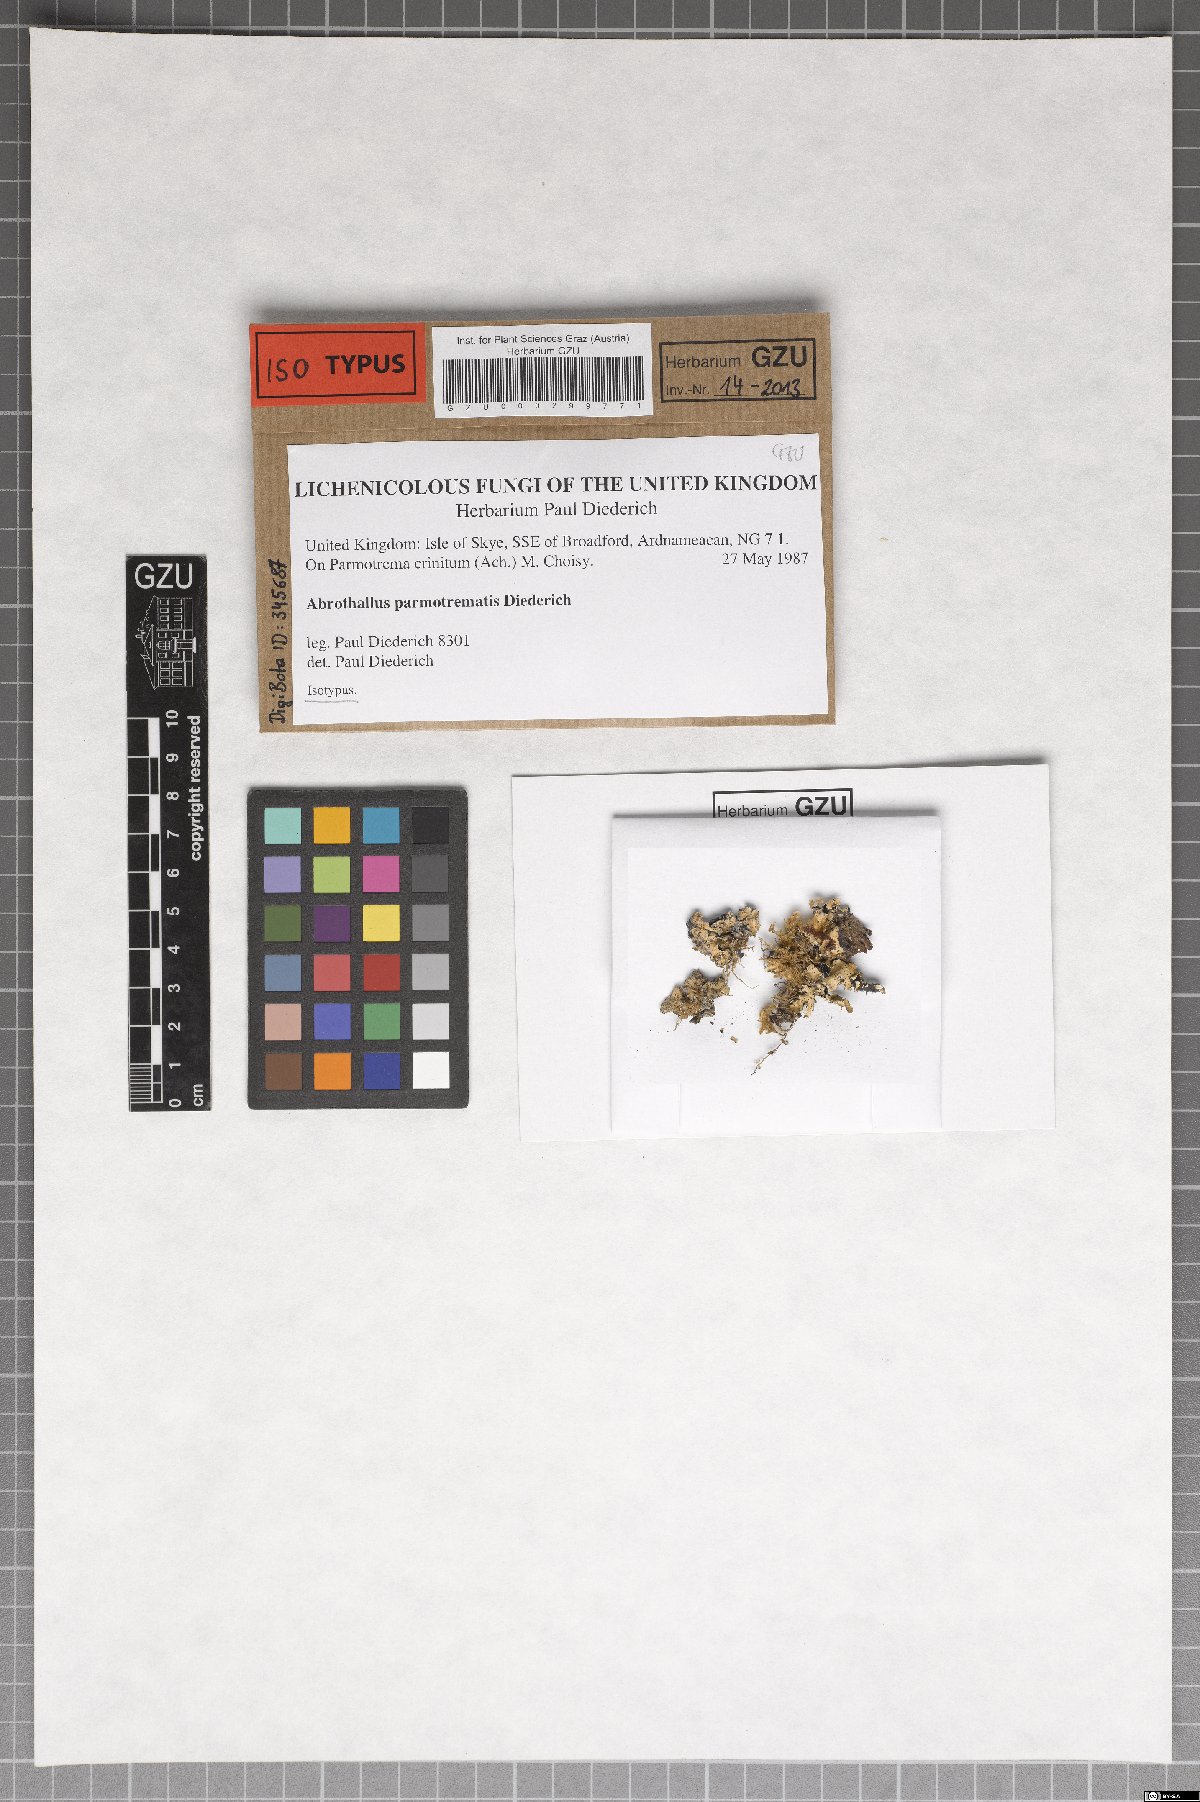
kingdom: Fungi
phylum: Ascomycota
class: Dothideomycetes
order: Abrothallales
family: Abrothallaceae
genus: Abrothallus
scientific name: Abrothallus parmotrematis
